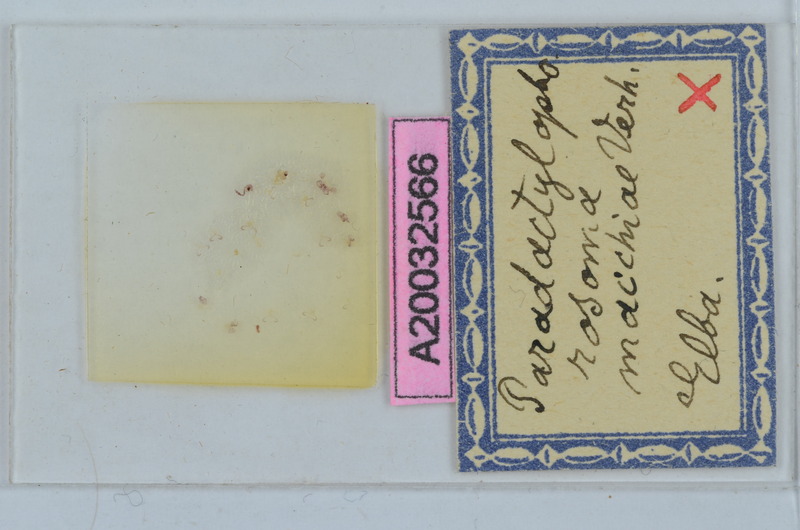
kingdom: Animalia
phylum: Arthropoda
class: Diplopoda
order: Chordeumatida
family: Craspedosomatidae
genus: Paradactylophorosoma
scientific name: Paradactylophorosoma insulanum
